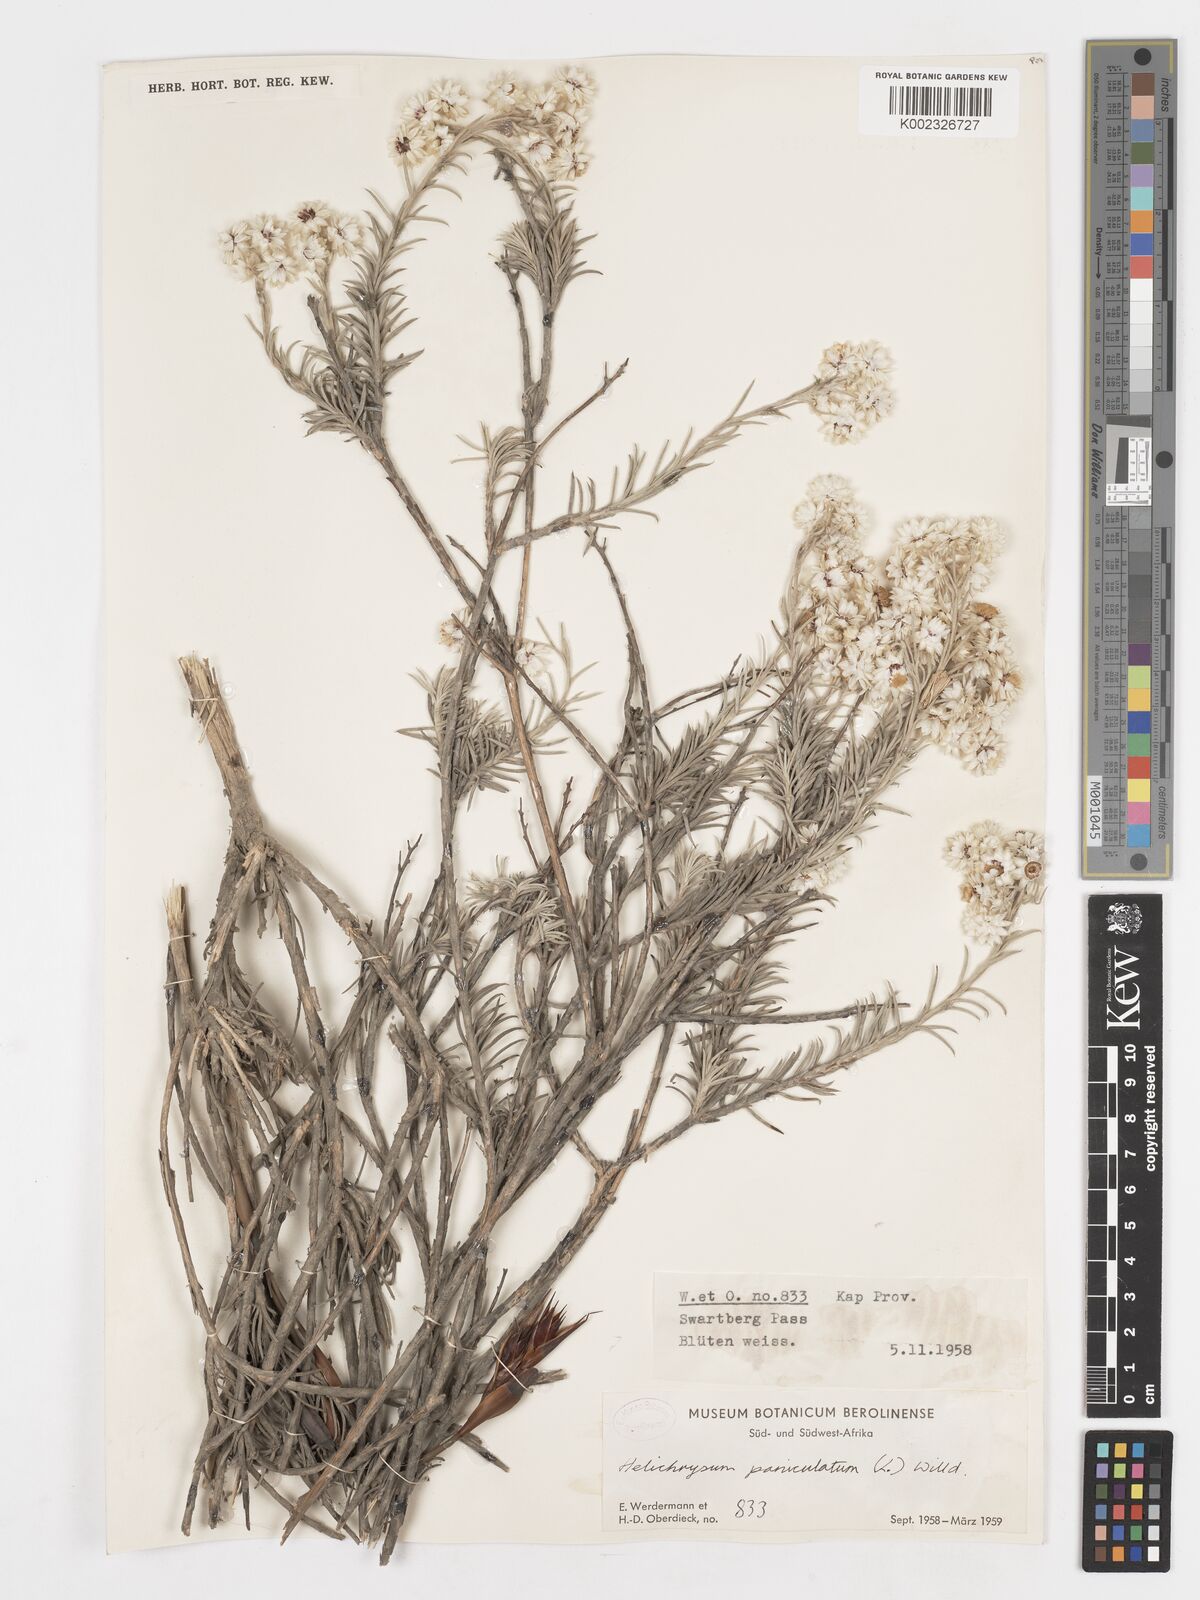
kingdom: Plantae
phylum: Tracheophyta
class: Magnoliopsida
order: Asterales
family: Asteraceae
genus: Achyranthemum
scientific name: Achyranthemum paniculatum
